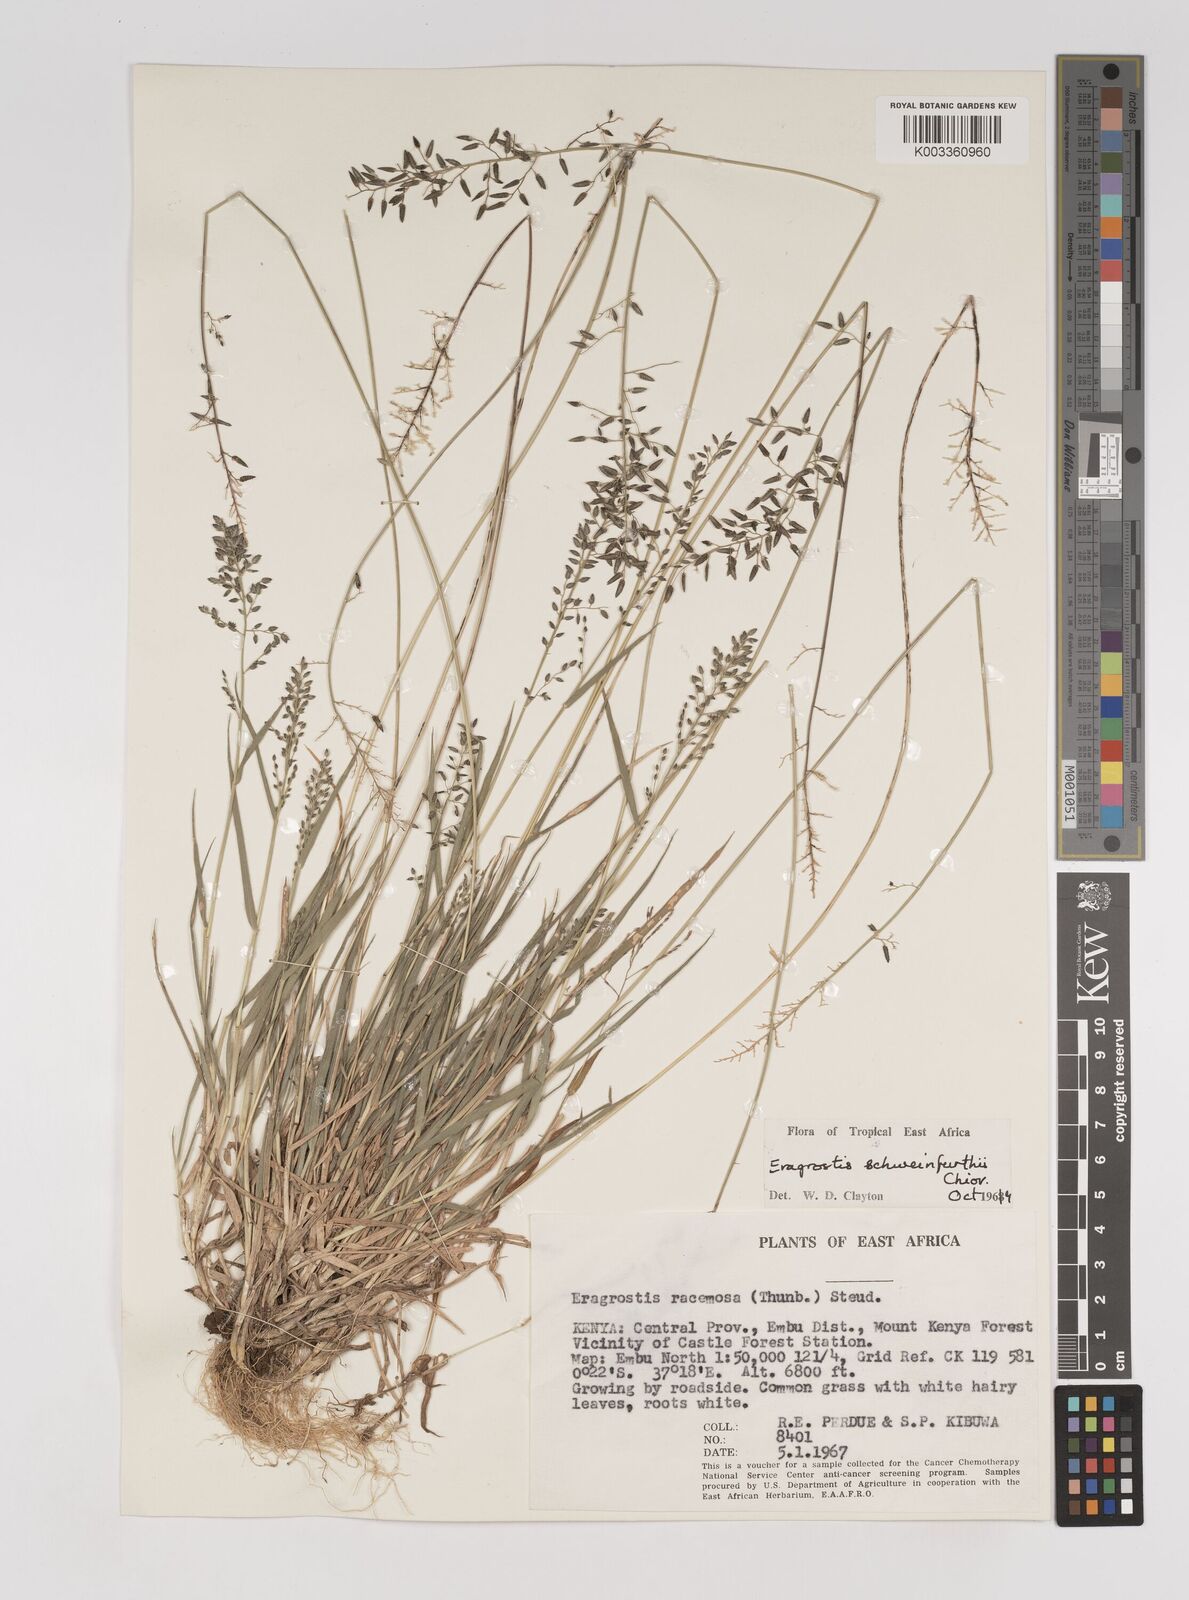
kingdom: Plantae
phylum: Tracheophyta
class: Liliopsida
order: Poales
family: Poaceae
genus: Eragrostis
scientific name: Eragrostis schweinfurthii
